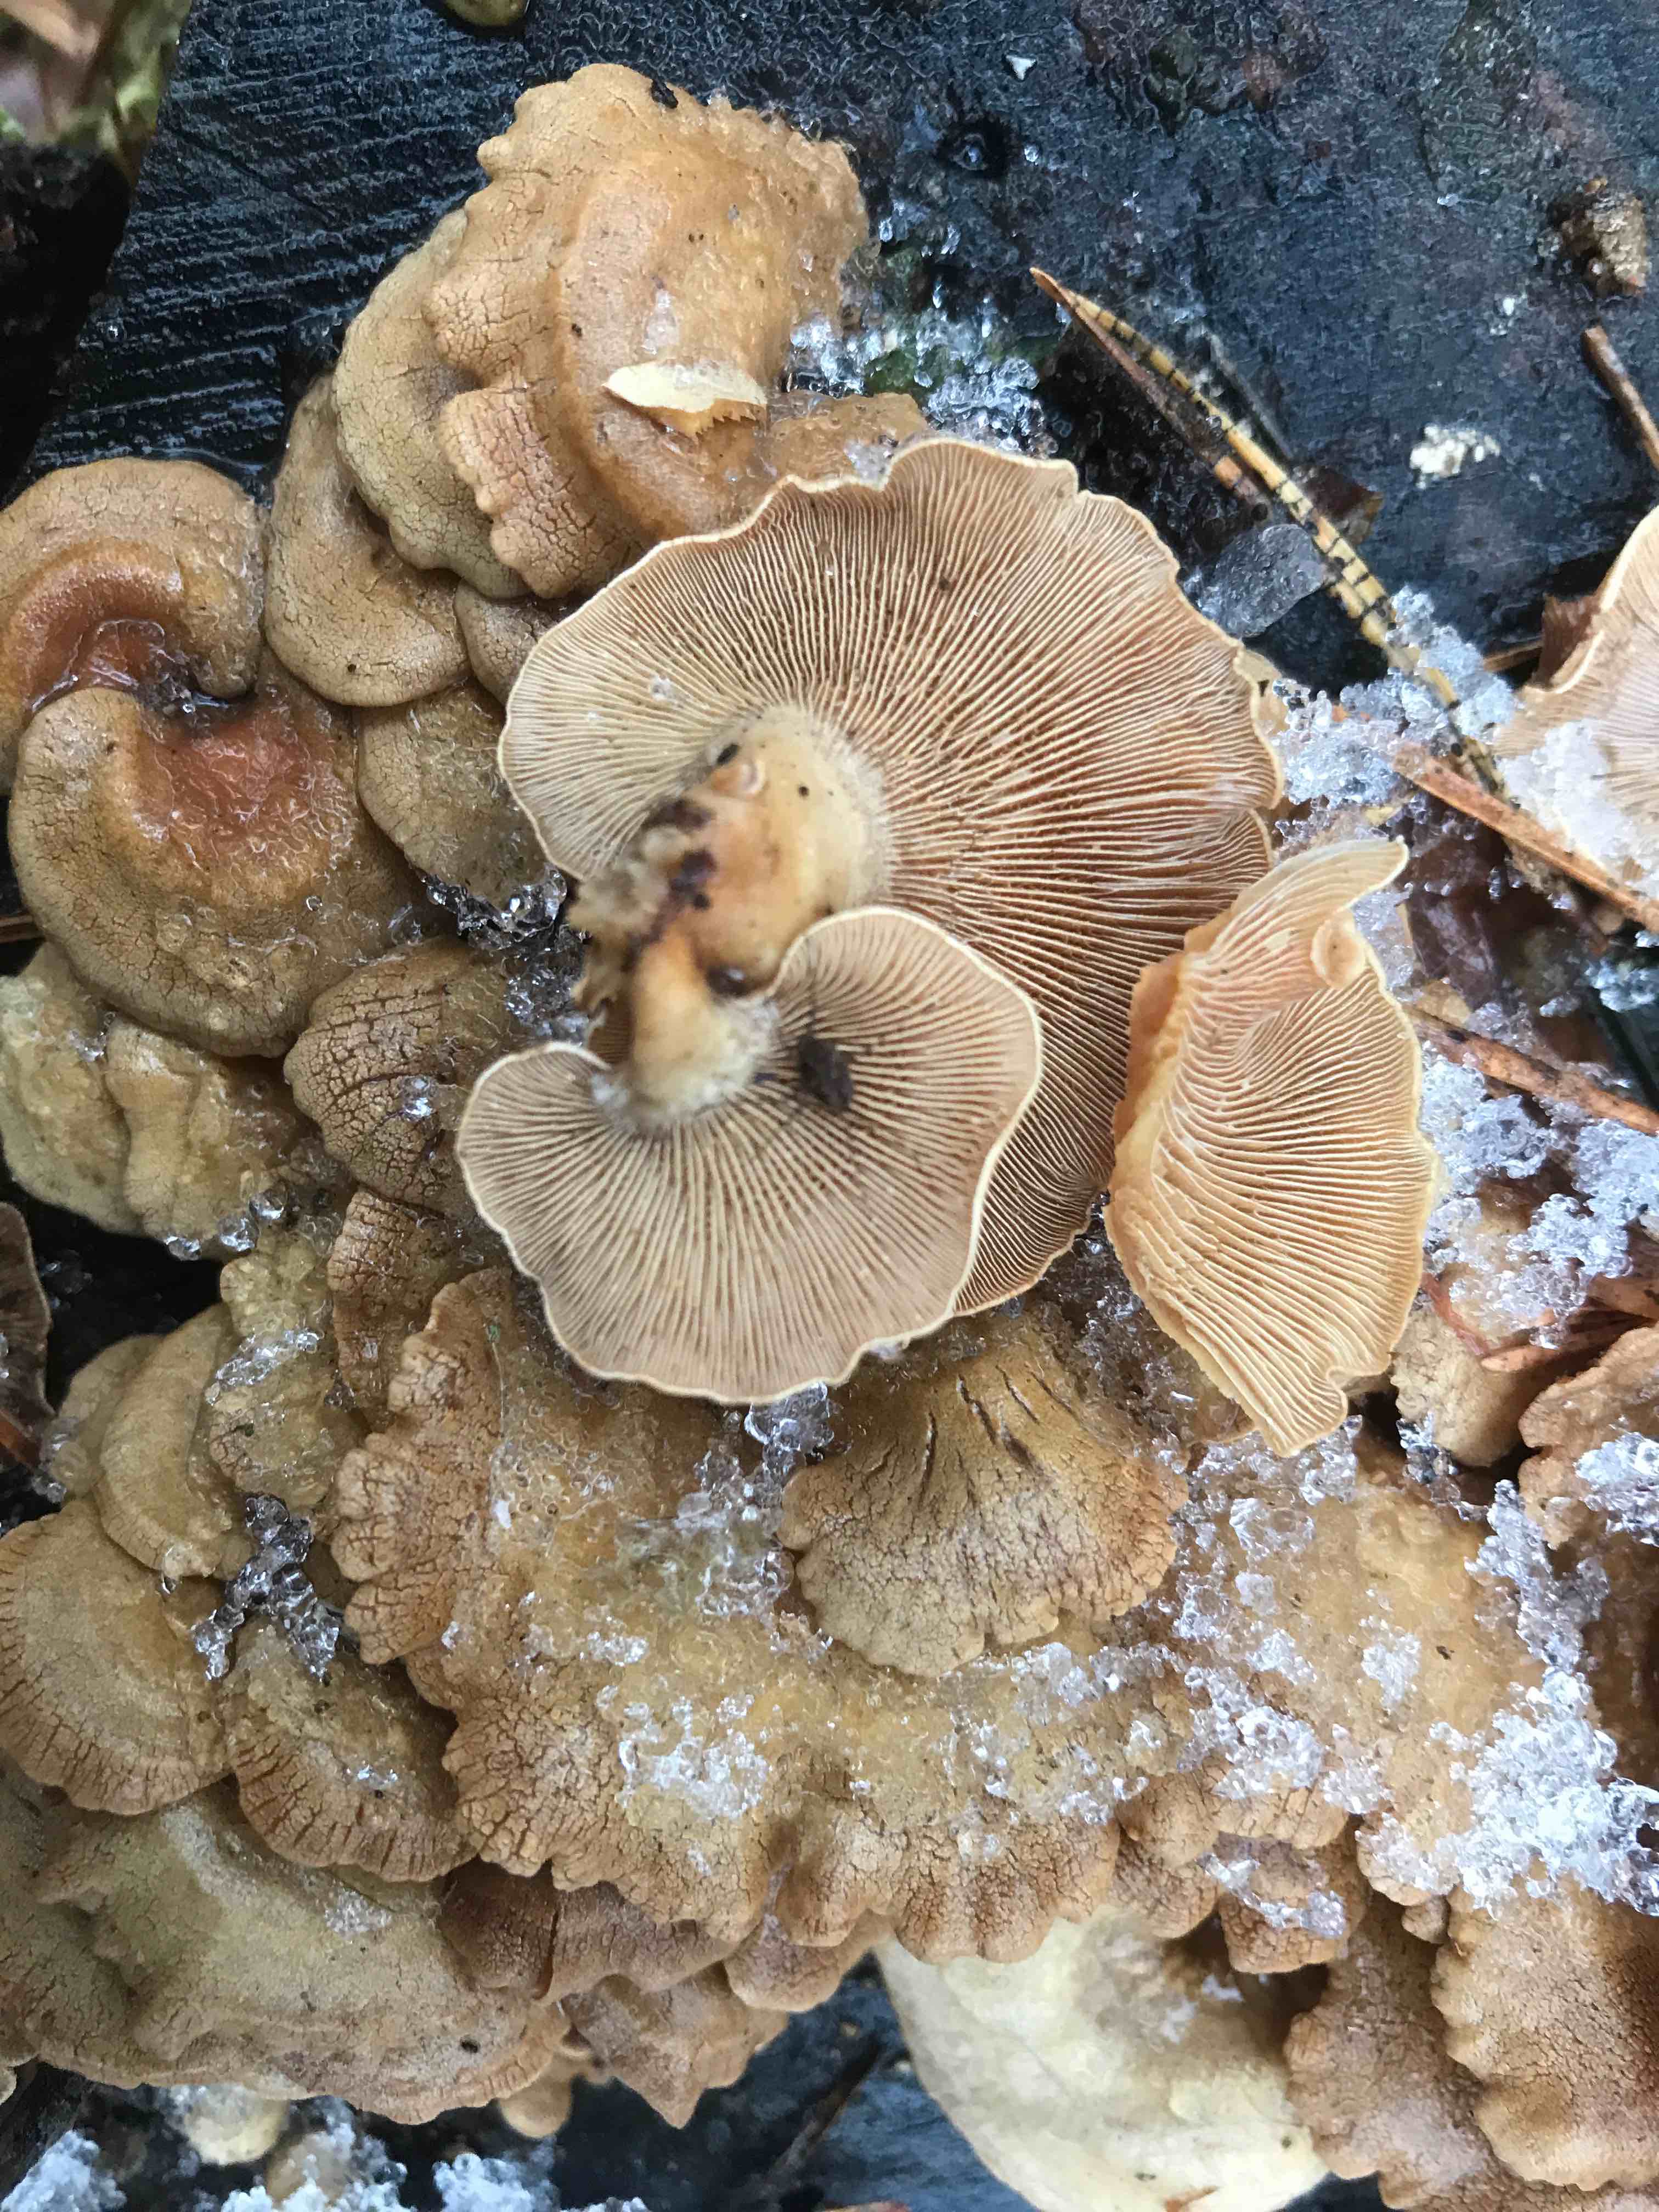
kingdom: Fungi
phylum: Basidiomycota
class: Agaricomycetes
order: Agaricales
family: Mycenaceae
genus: Panellus
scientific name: Panellus stipticus
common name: kliddet epaulethat
